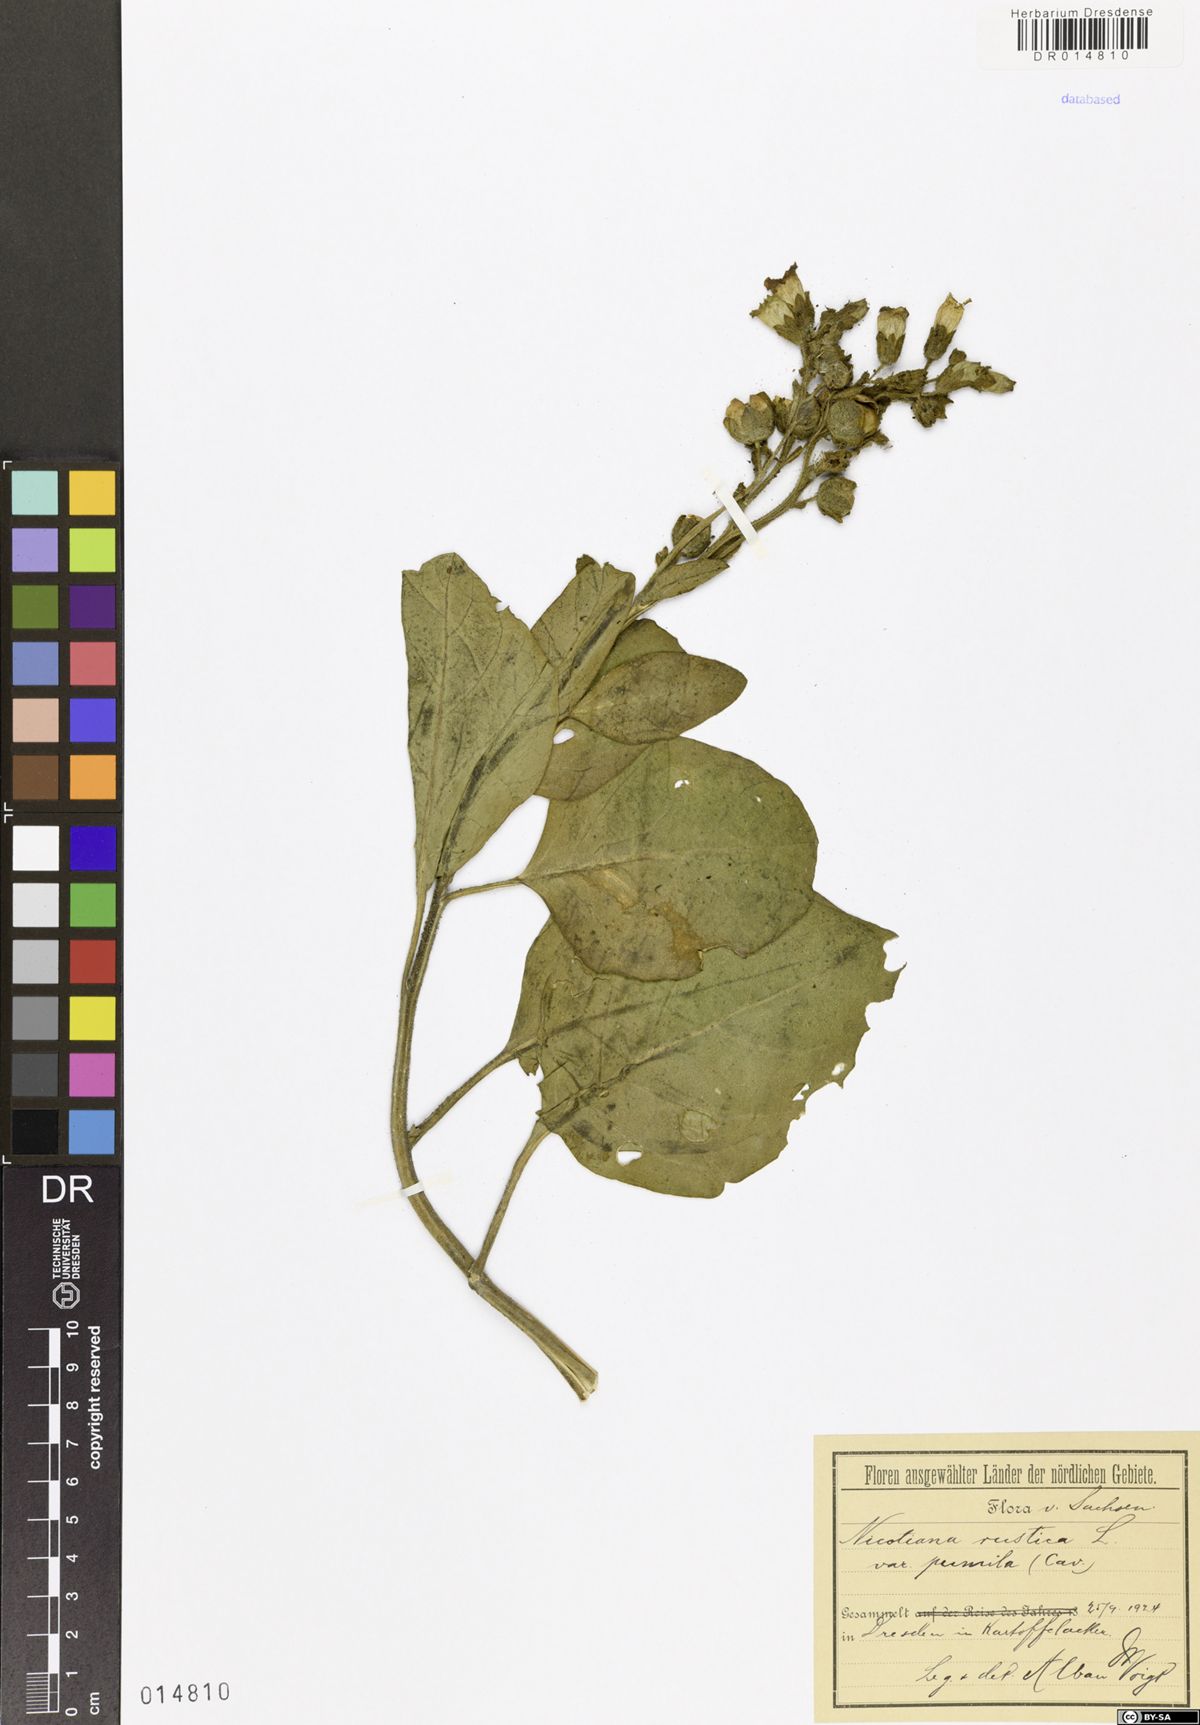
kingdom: Plantae
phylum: Tracheophyta
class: Magnoliopsida
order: Solanales
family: Solanaceae
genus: Nicotiana
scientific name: Nicotiana rustica
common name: Wild tobacco
